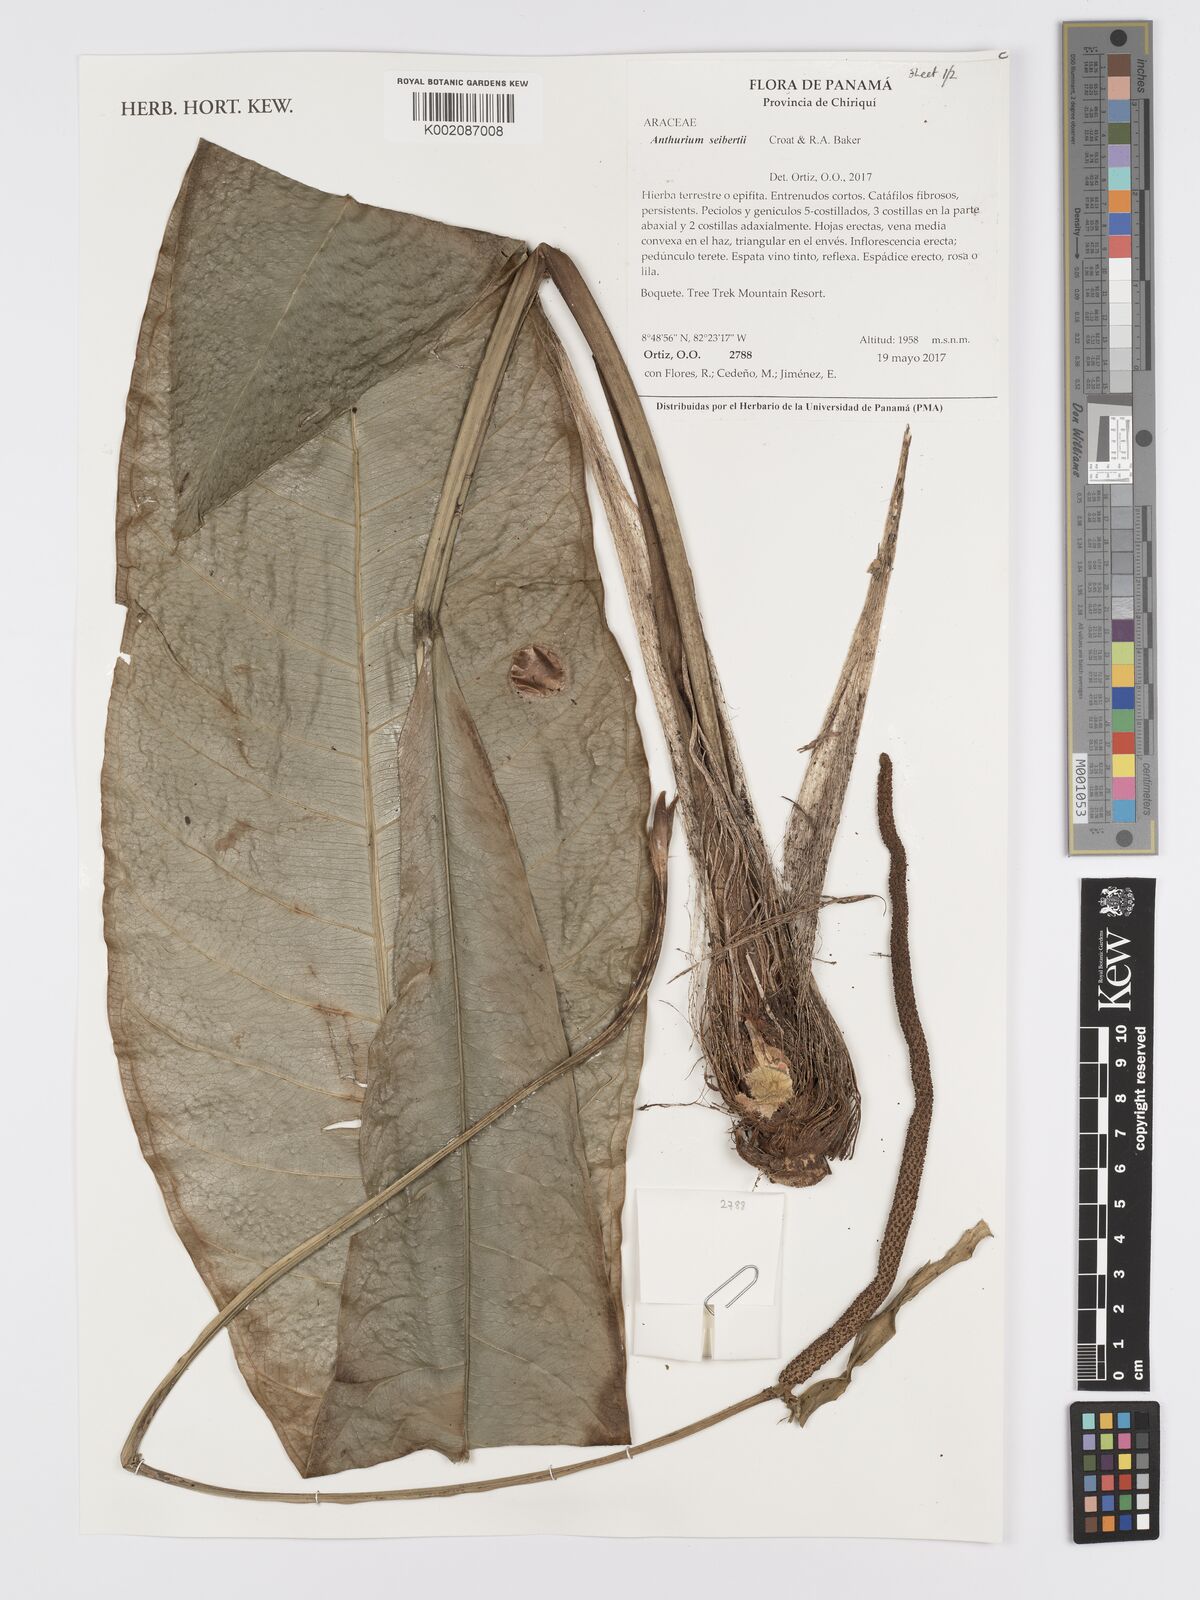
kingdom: Plantae
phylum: Tracheophyta
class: Liliopsida
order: Alismatales
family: Araceae
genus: Anthurium
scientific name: Anthurium seibertii
